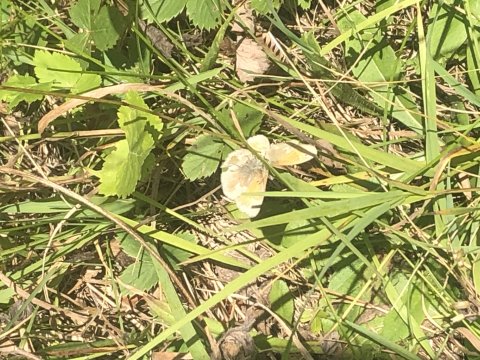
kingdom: Animalia
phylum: Arthropoda
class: Insecta
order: Lepidoptera
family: Nymphalidae
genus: Coenonympha
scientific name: Coenonympha tullia
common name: Large Heath
